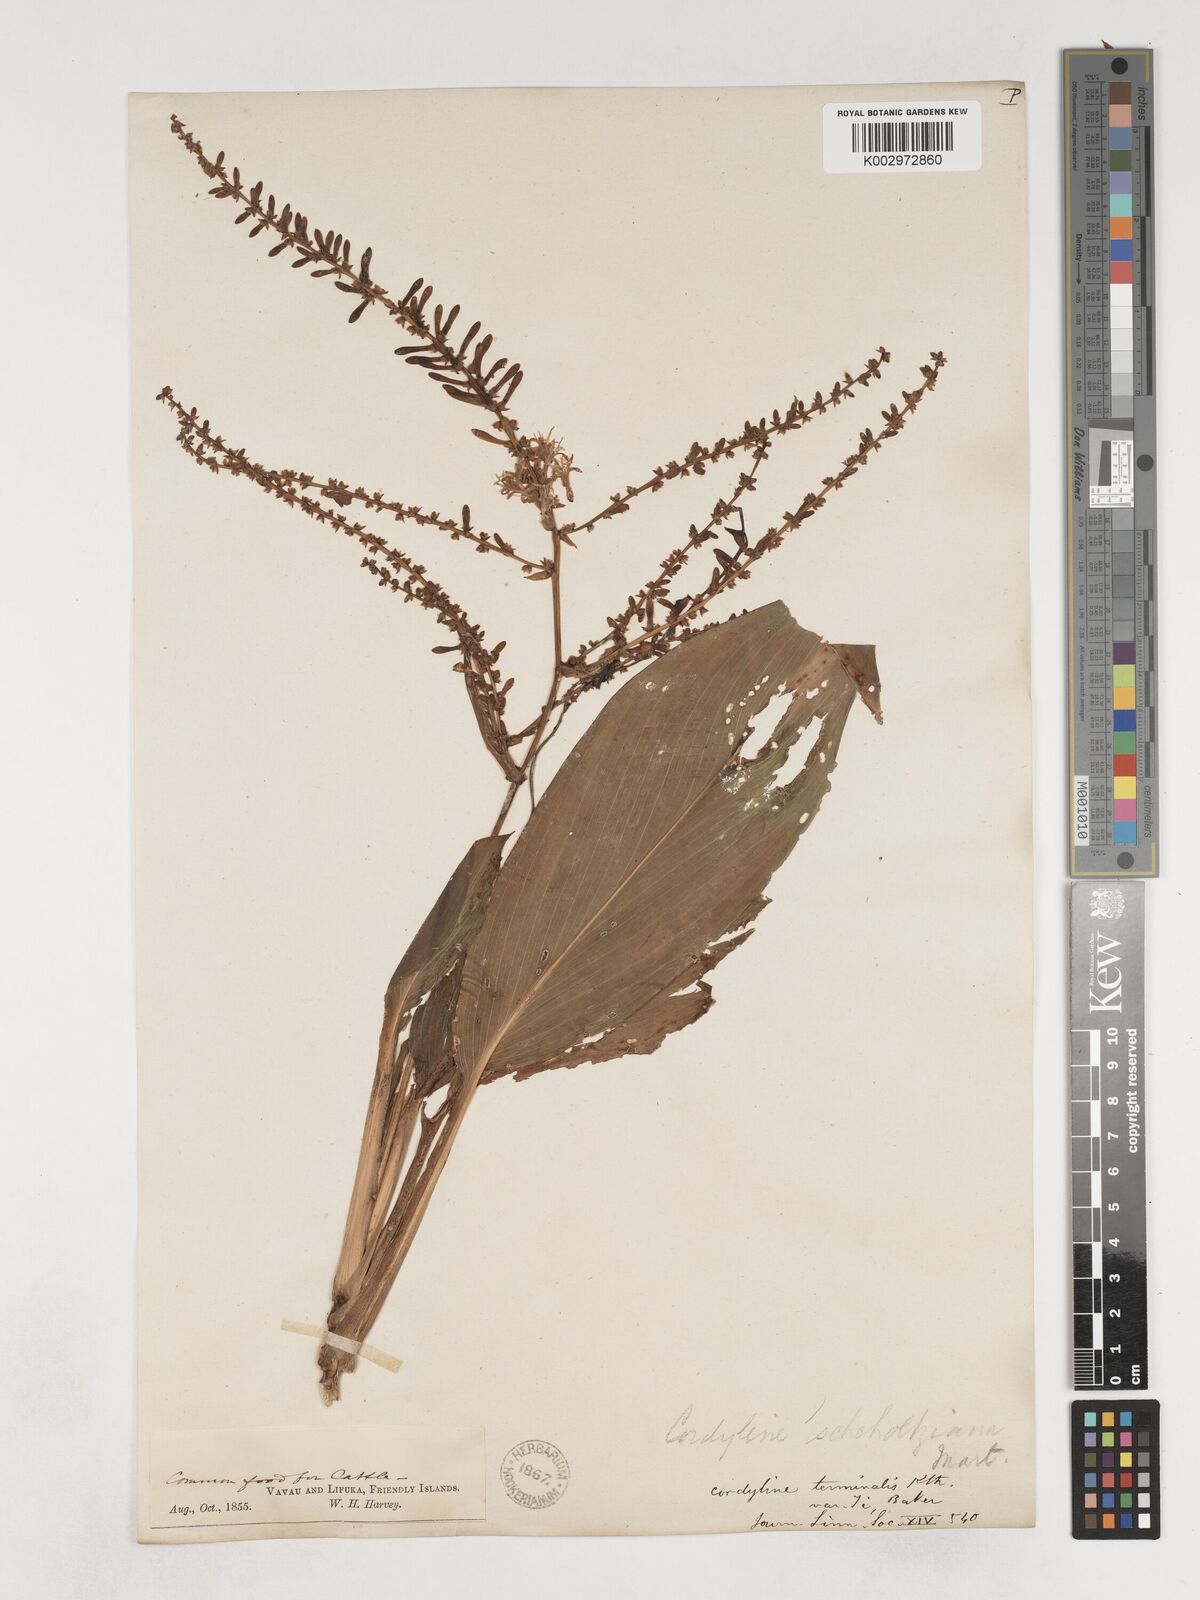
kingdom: Plantae
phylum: Tracheophyta
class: Liliopsida
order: Asparagales
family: Asparagaceae
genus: Cordyline
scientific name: Cordyline fruticosa
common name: Good-luck-plant
